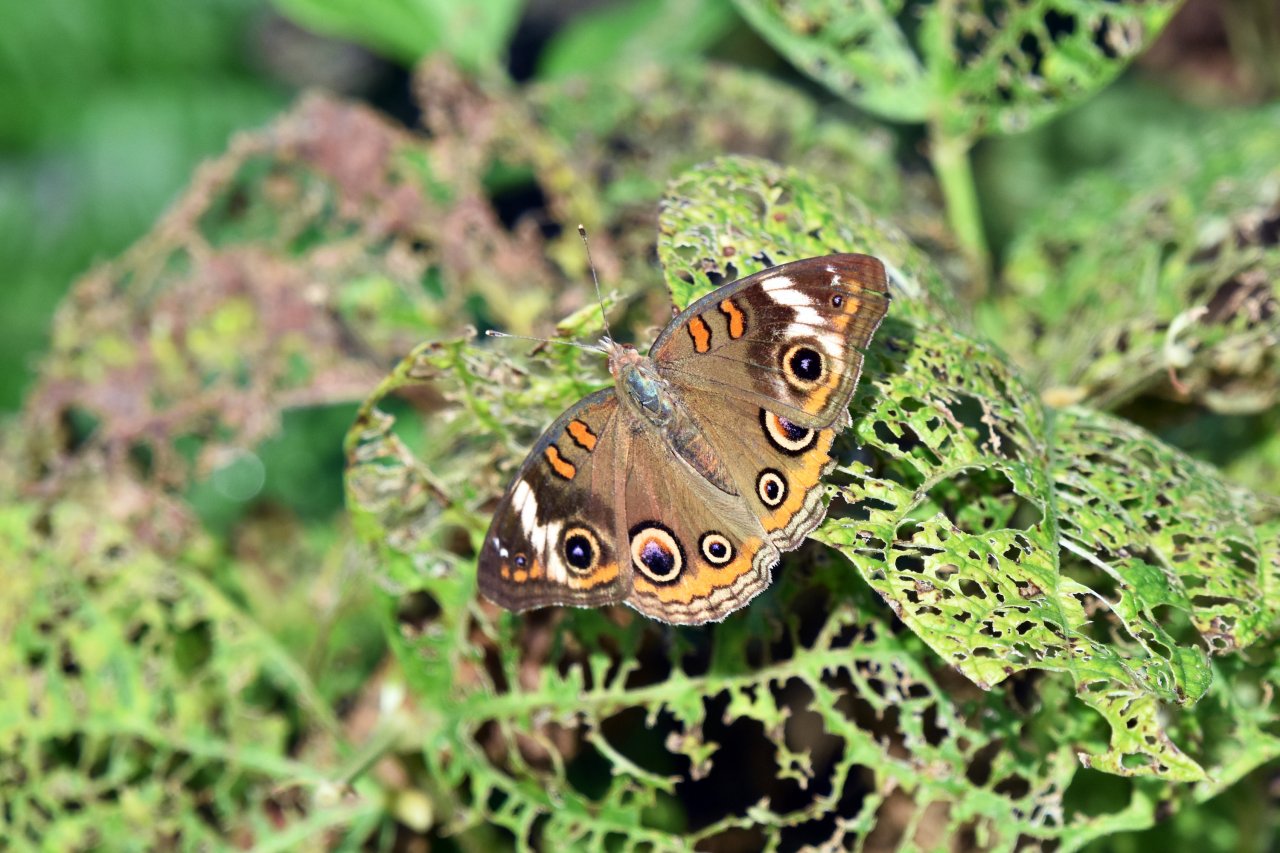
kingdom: Animalia
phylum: Arthropoda
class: Insecta
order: Lepidoptera
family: Nymphalidae
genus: Junonia
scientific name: Junonia coenia
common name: Common Buckeye
